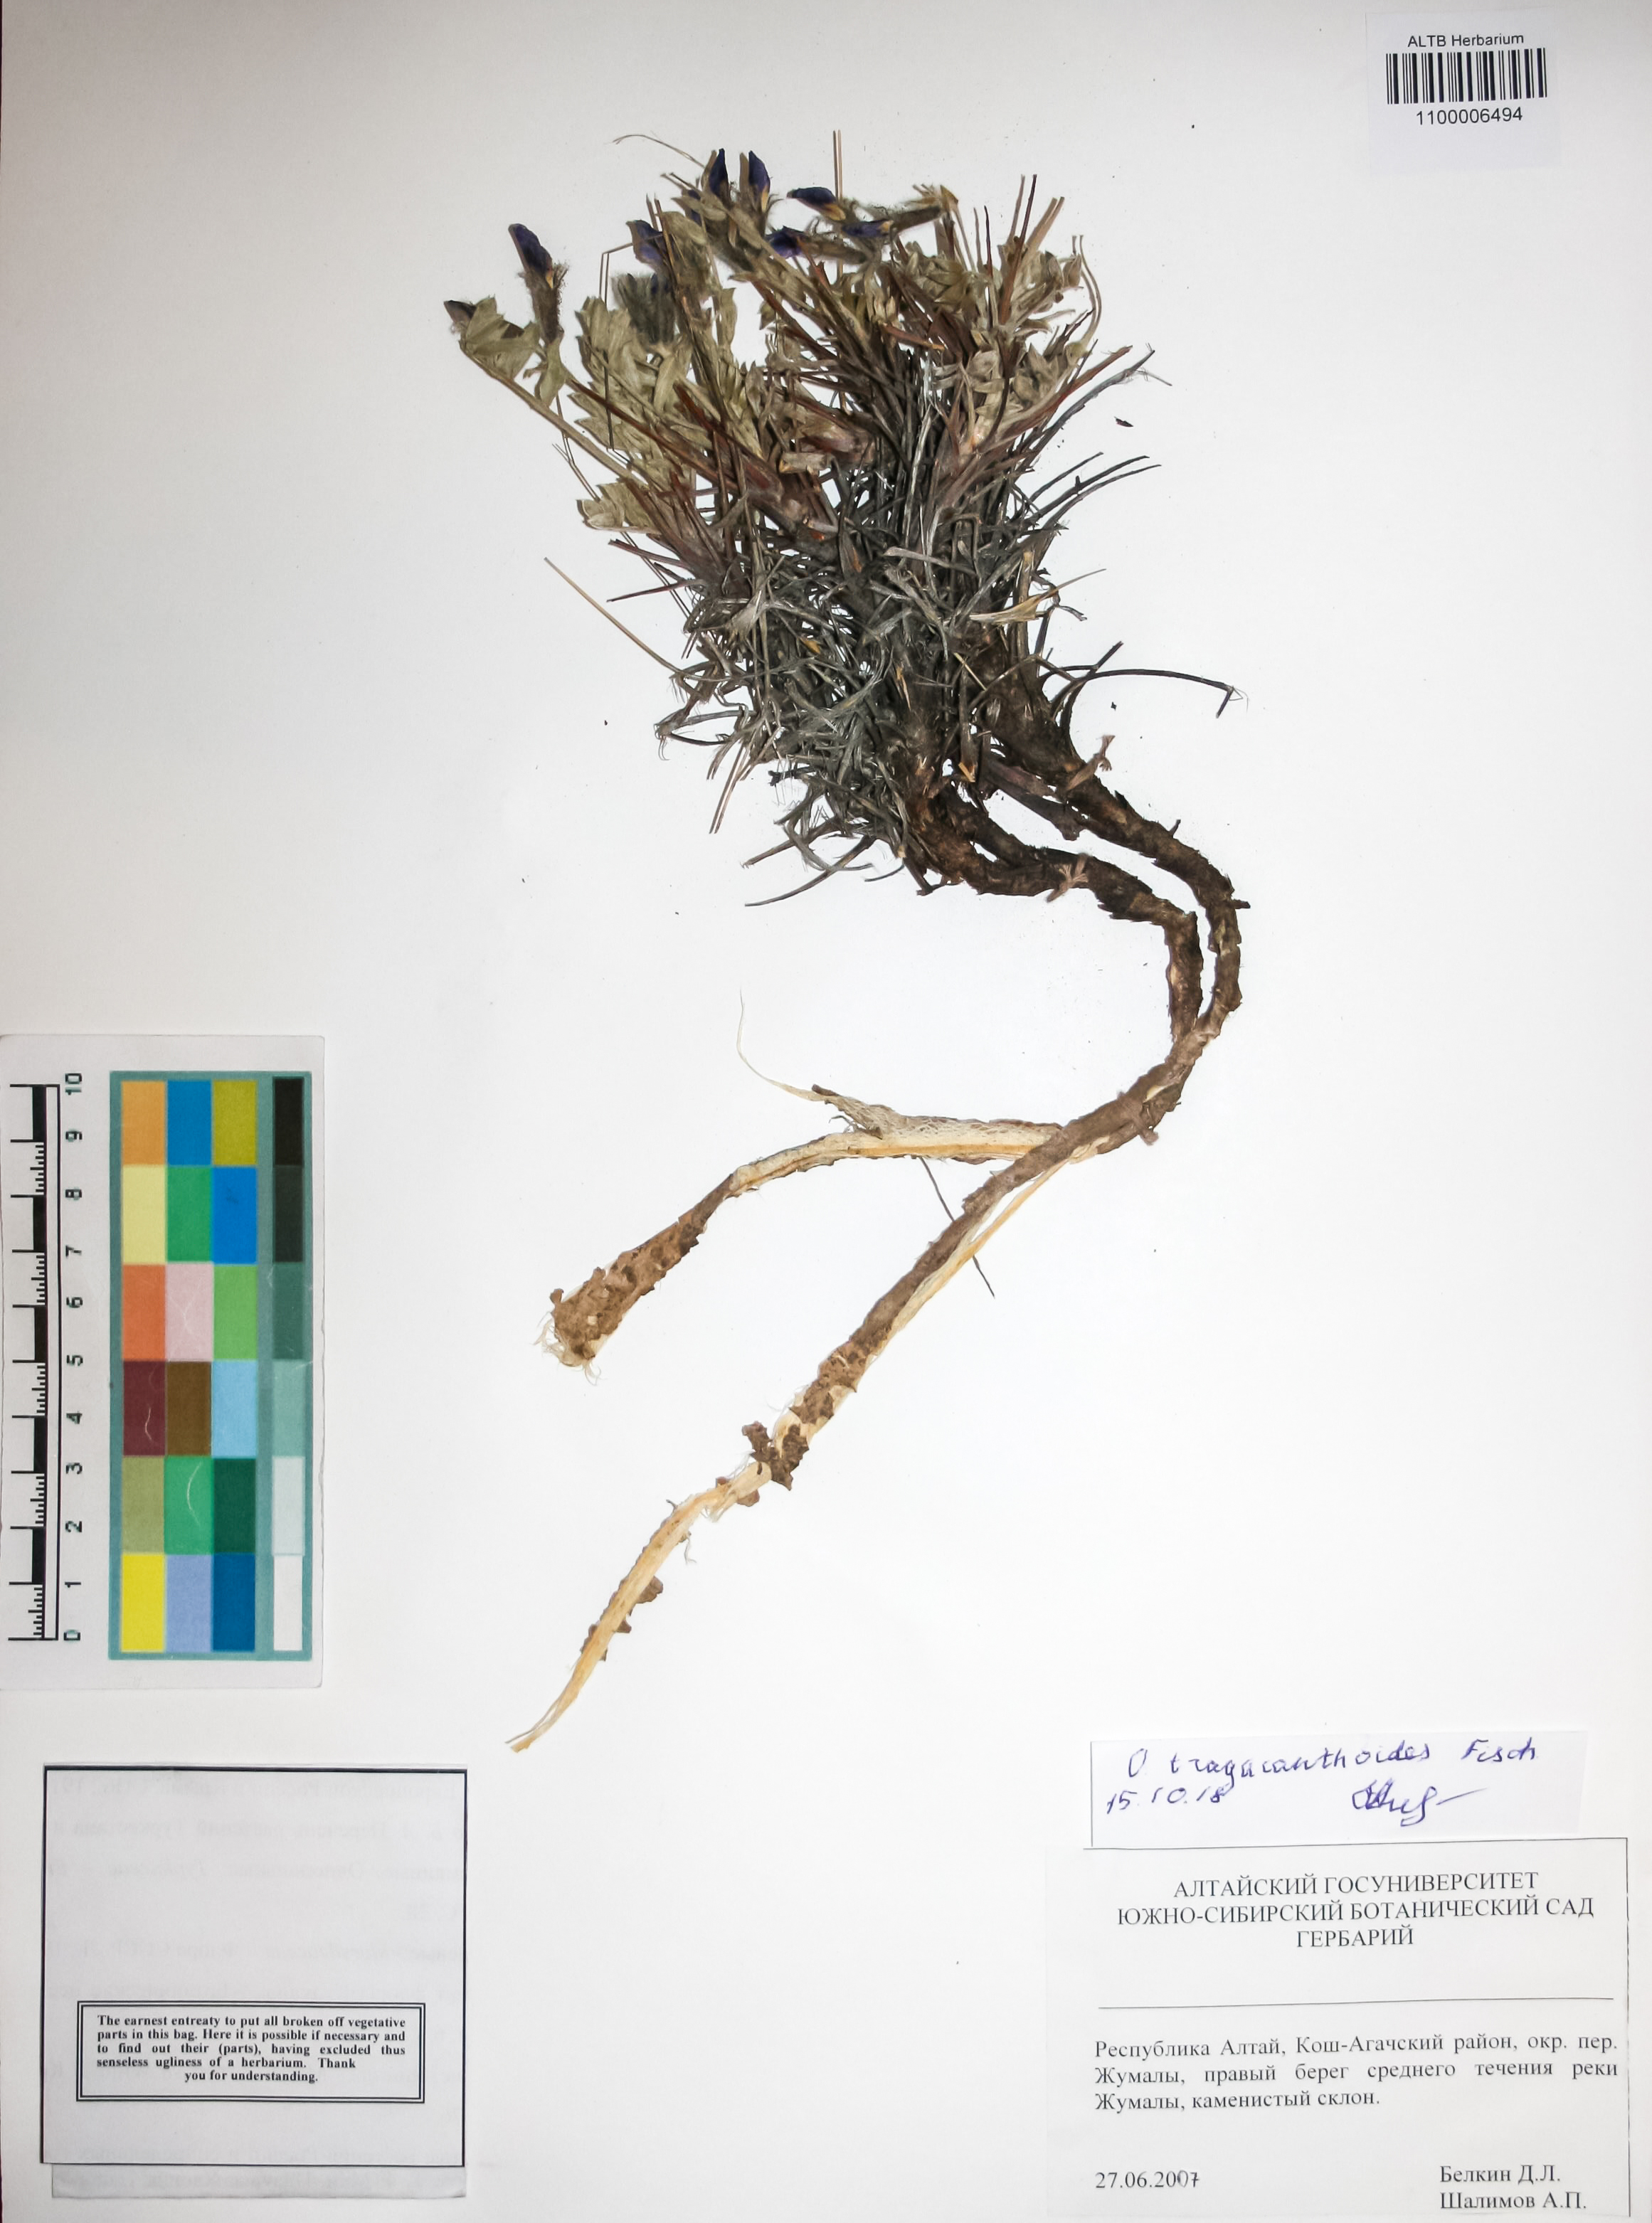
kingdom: Plantae
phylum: Tracheophyta
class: Magnoliopsida
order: Fabales
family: Fabaceae
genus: Oxytropis
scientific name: Oxytropis tragacanthoides
